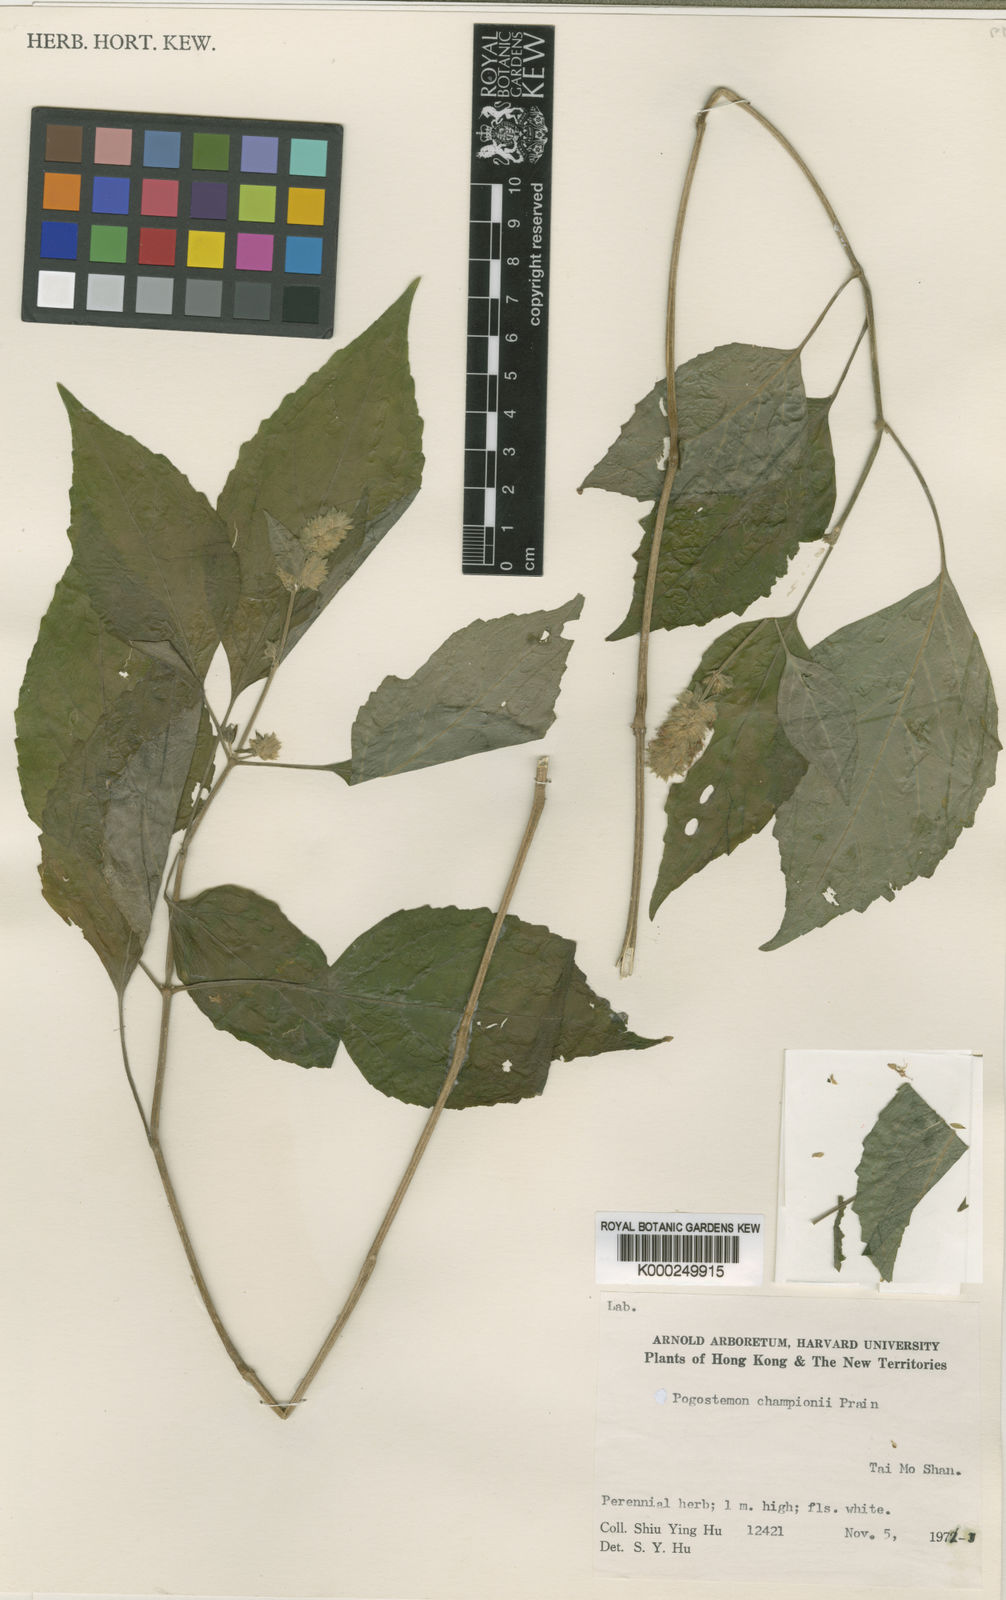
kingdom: Plantae
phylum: Tracheophyta
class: Magnoliopsida
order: Lamiales
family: Lamiaceae
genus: Pogostemon
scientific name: Pogostemon parviflorus
